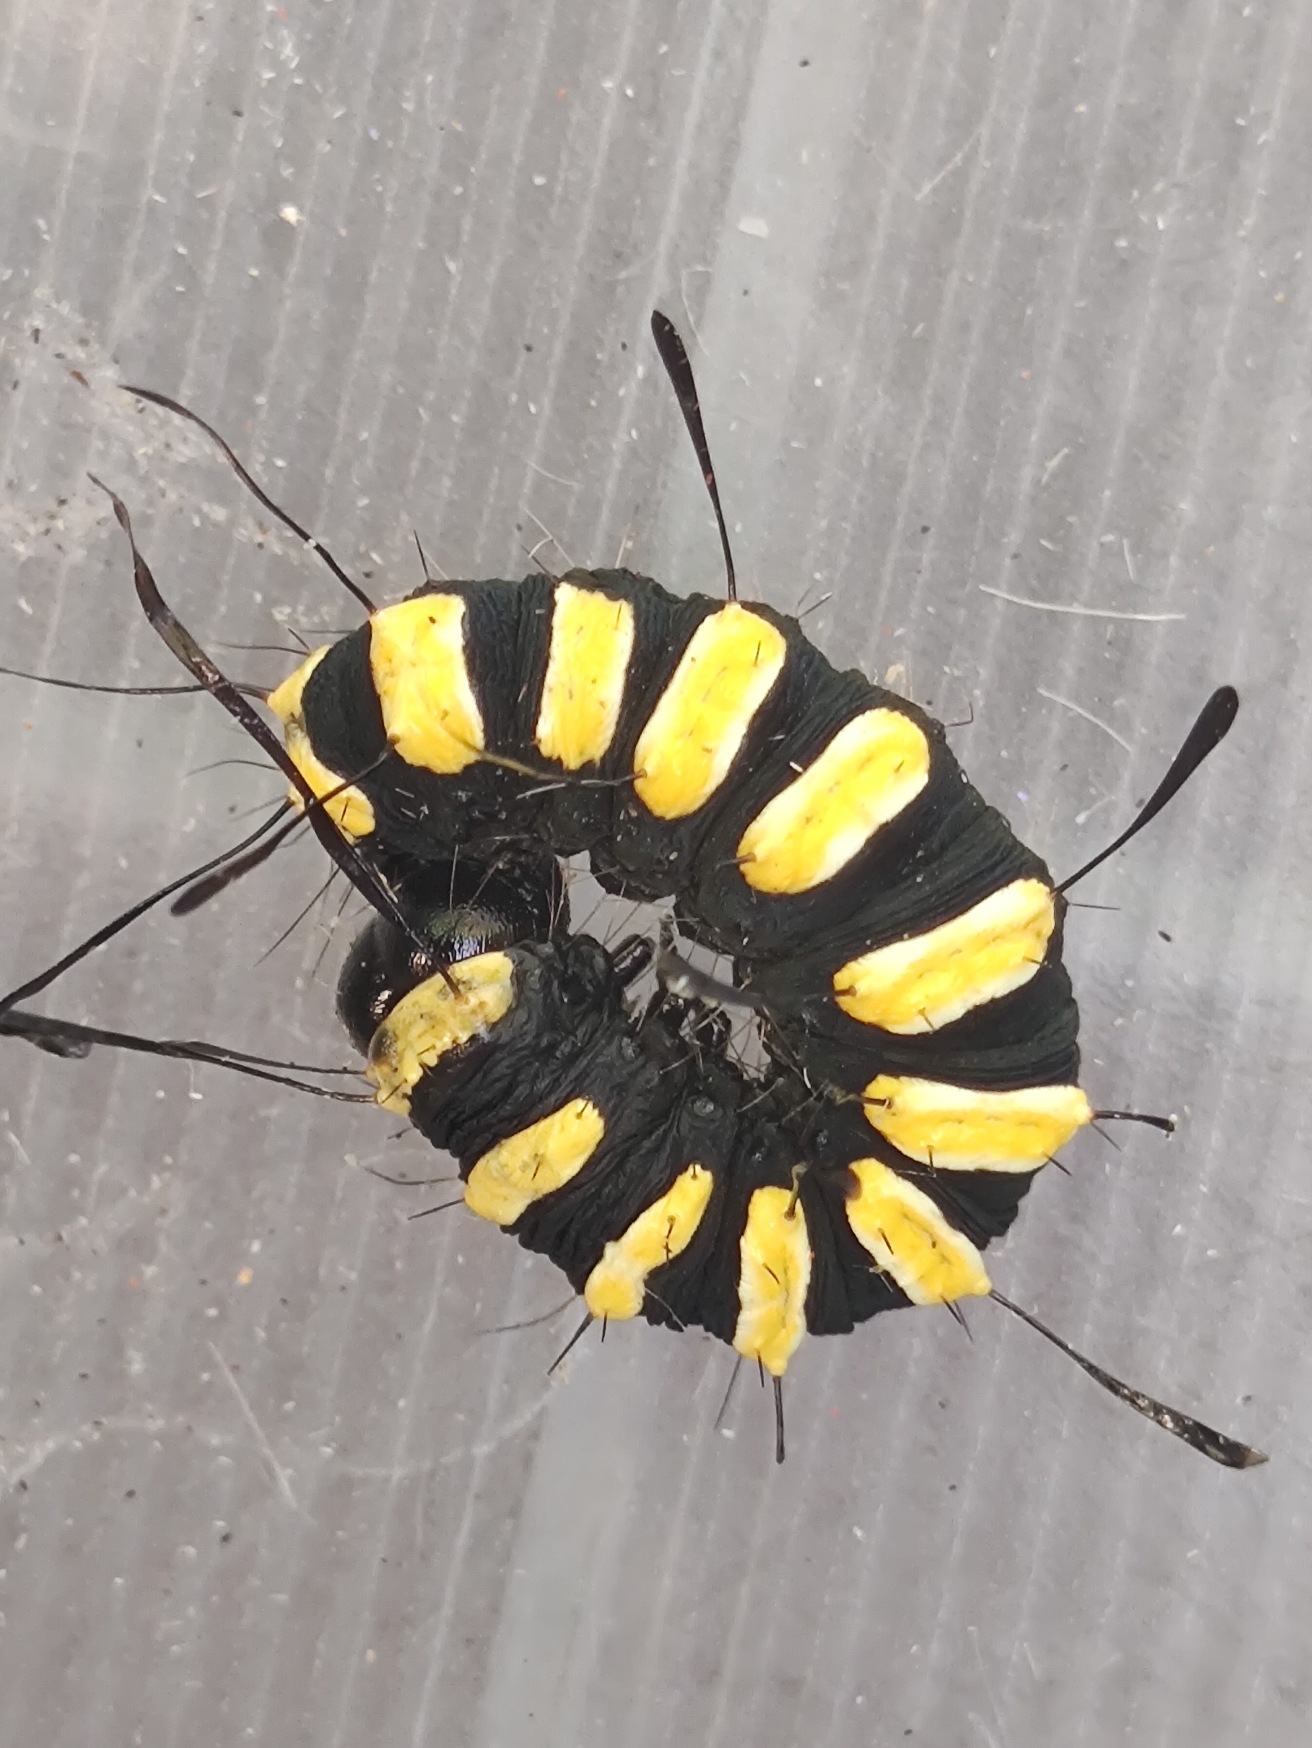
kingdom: Animalia
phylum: Arthropoda
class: Insecta
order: Lepidoptera
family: Noctuidae
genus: Acronicta
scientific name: Acronicta alni
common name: Kølleugle
